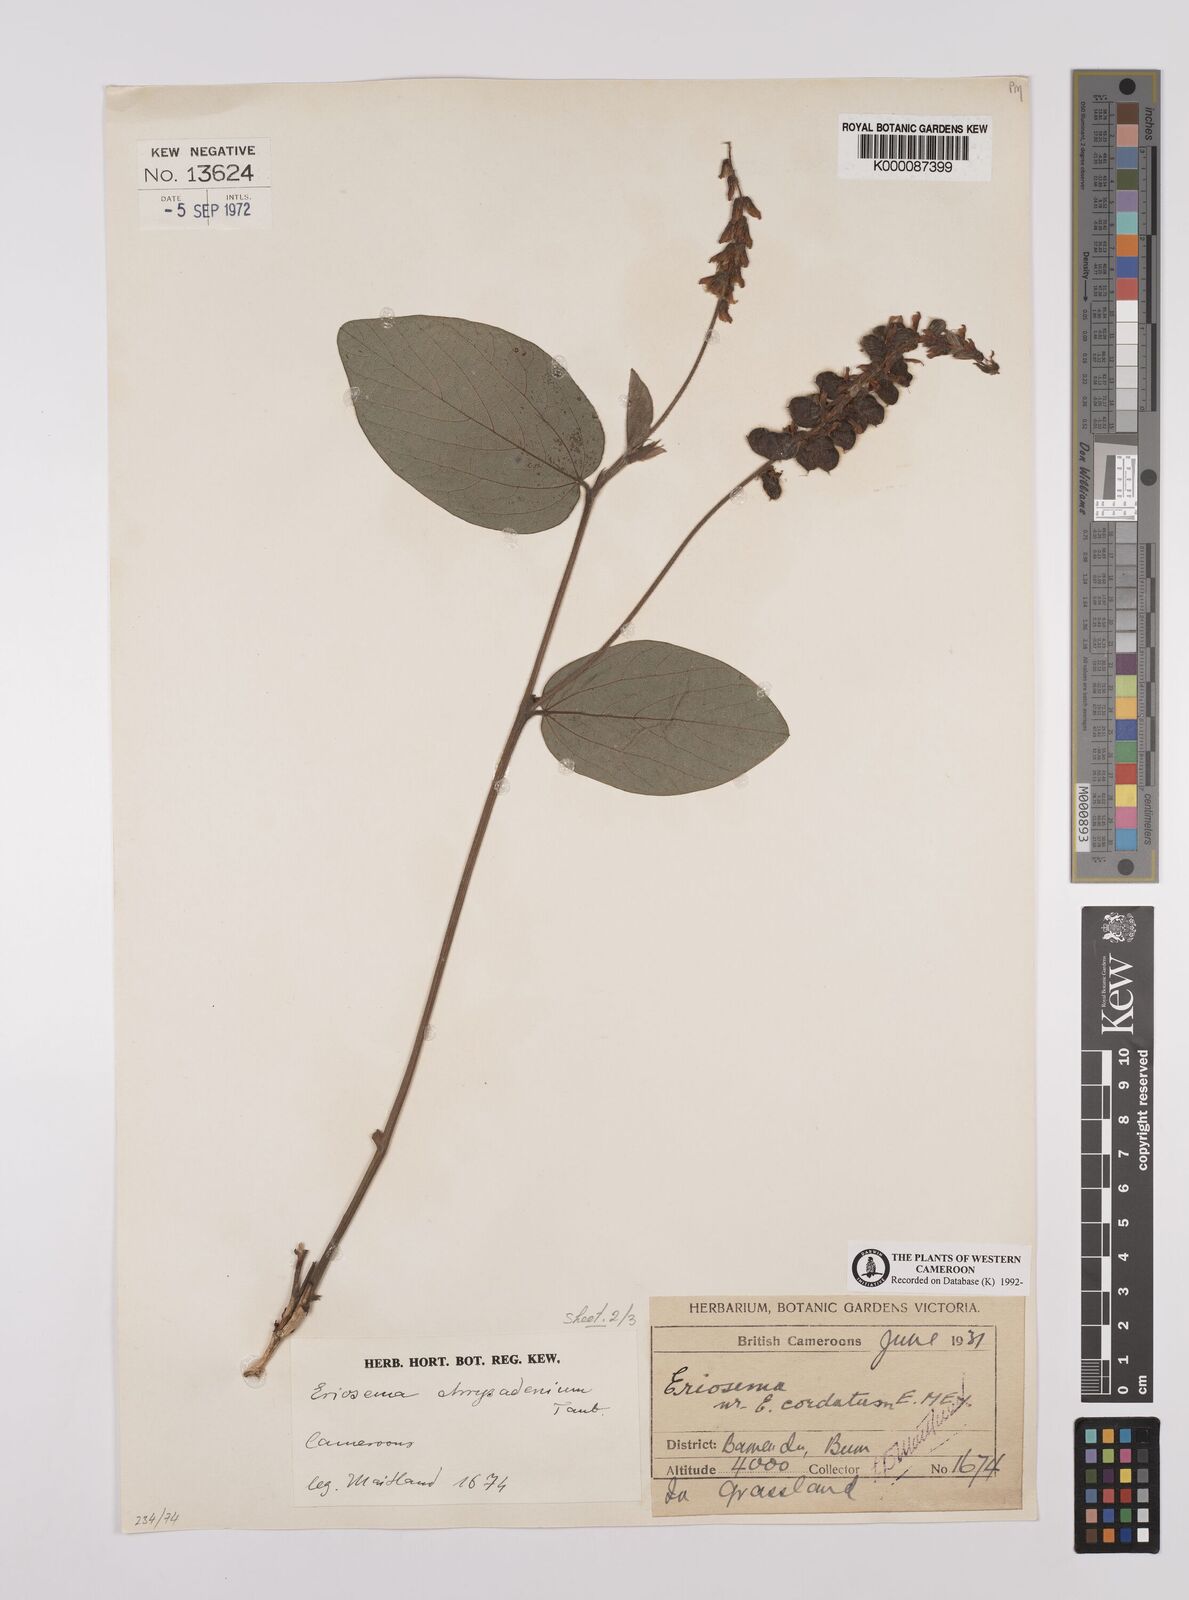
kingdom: Plantae
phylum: Tracheophyta
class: Magnoliopsida
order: Fabales
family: Fabaceae
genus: Eriosema
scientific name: Eriosema chrysadenium
